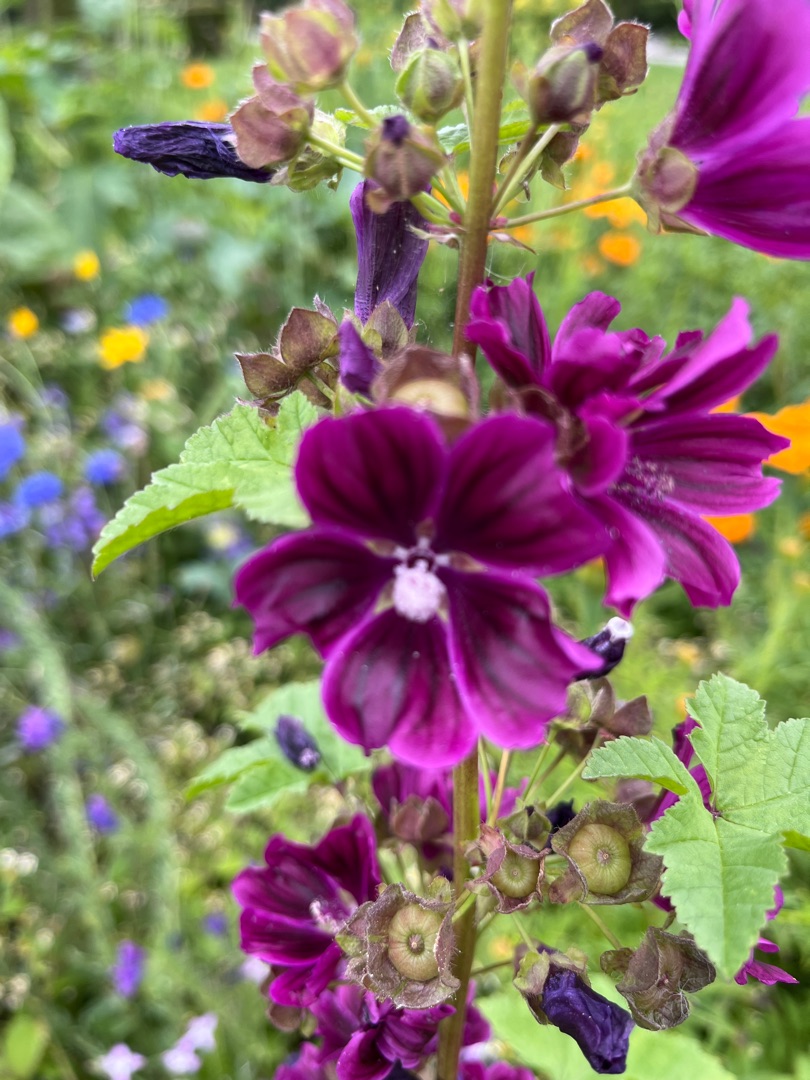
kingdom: Plantae
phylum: Tracheophyta
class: Magnoliopsida
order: Malvales
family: Malvaceae
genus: Malva
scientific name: Malva sylvestris
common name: Stor katost
